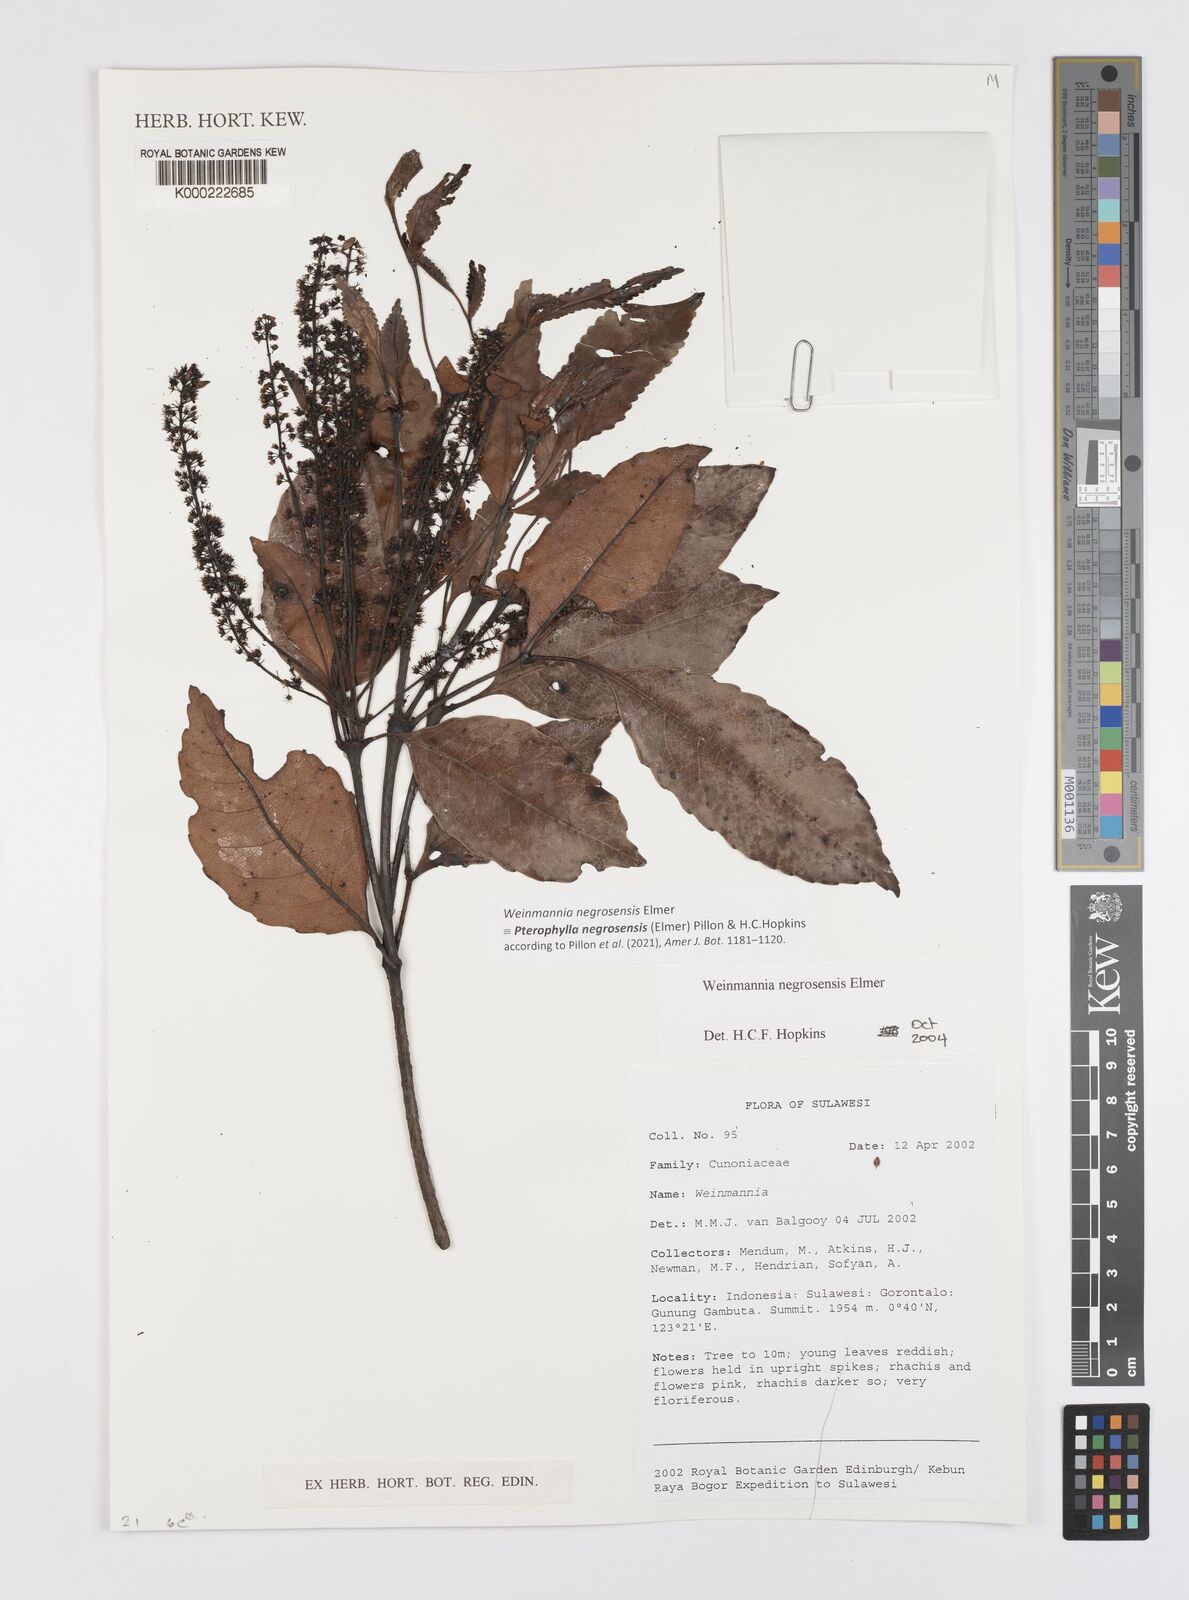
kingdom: Plantae
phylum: Tracheophyta
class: Magnoliopsida
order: Oxalidales
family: Cunoniaceae
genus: Pterophylla
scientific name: Pterophylla negrosensis
